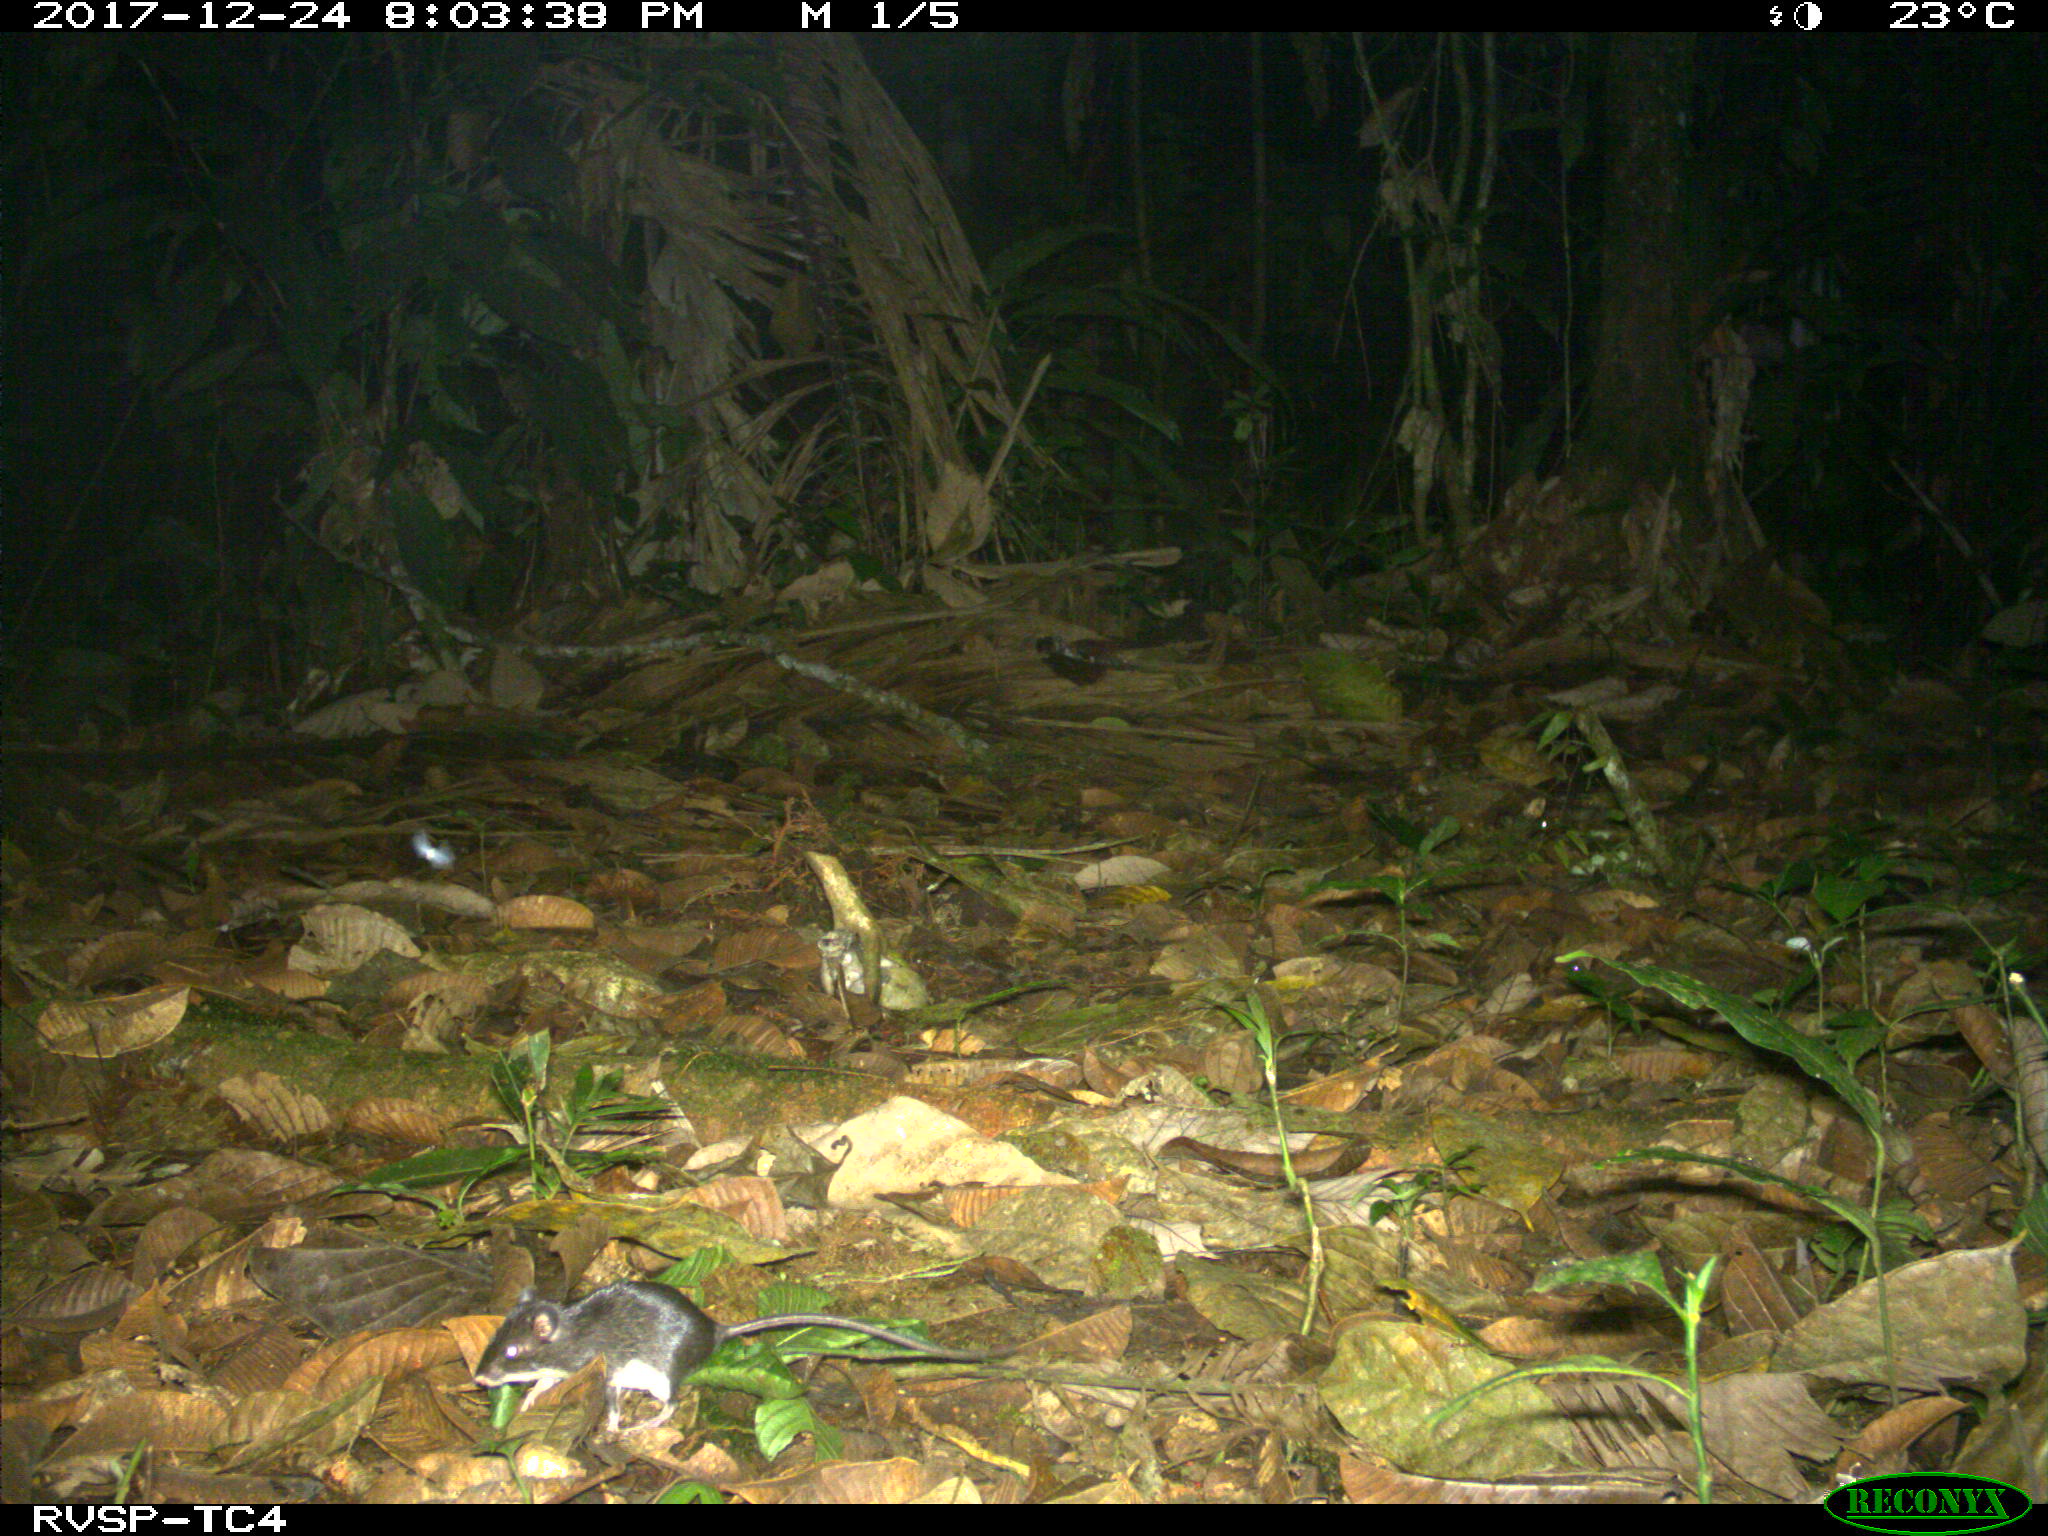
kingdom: Animalia
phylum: Chordata
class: Mammalia
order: Rodentia
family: Echimyidae
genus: Proechimys
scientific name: Proechimys
